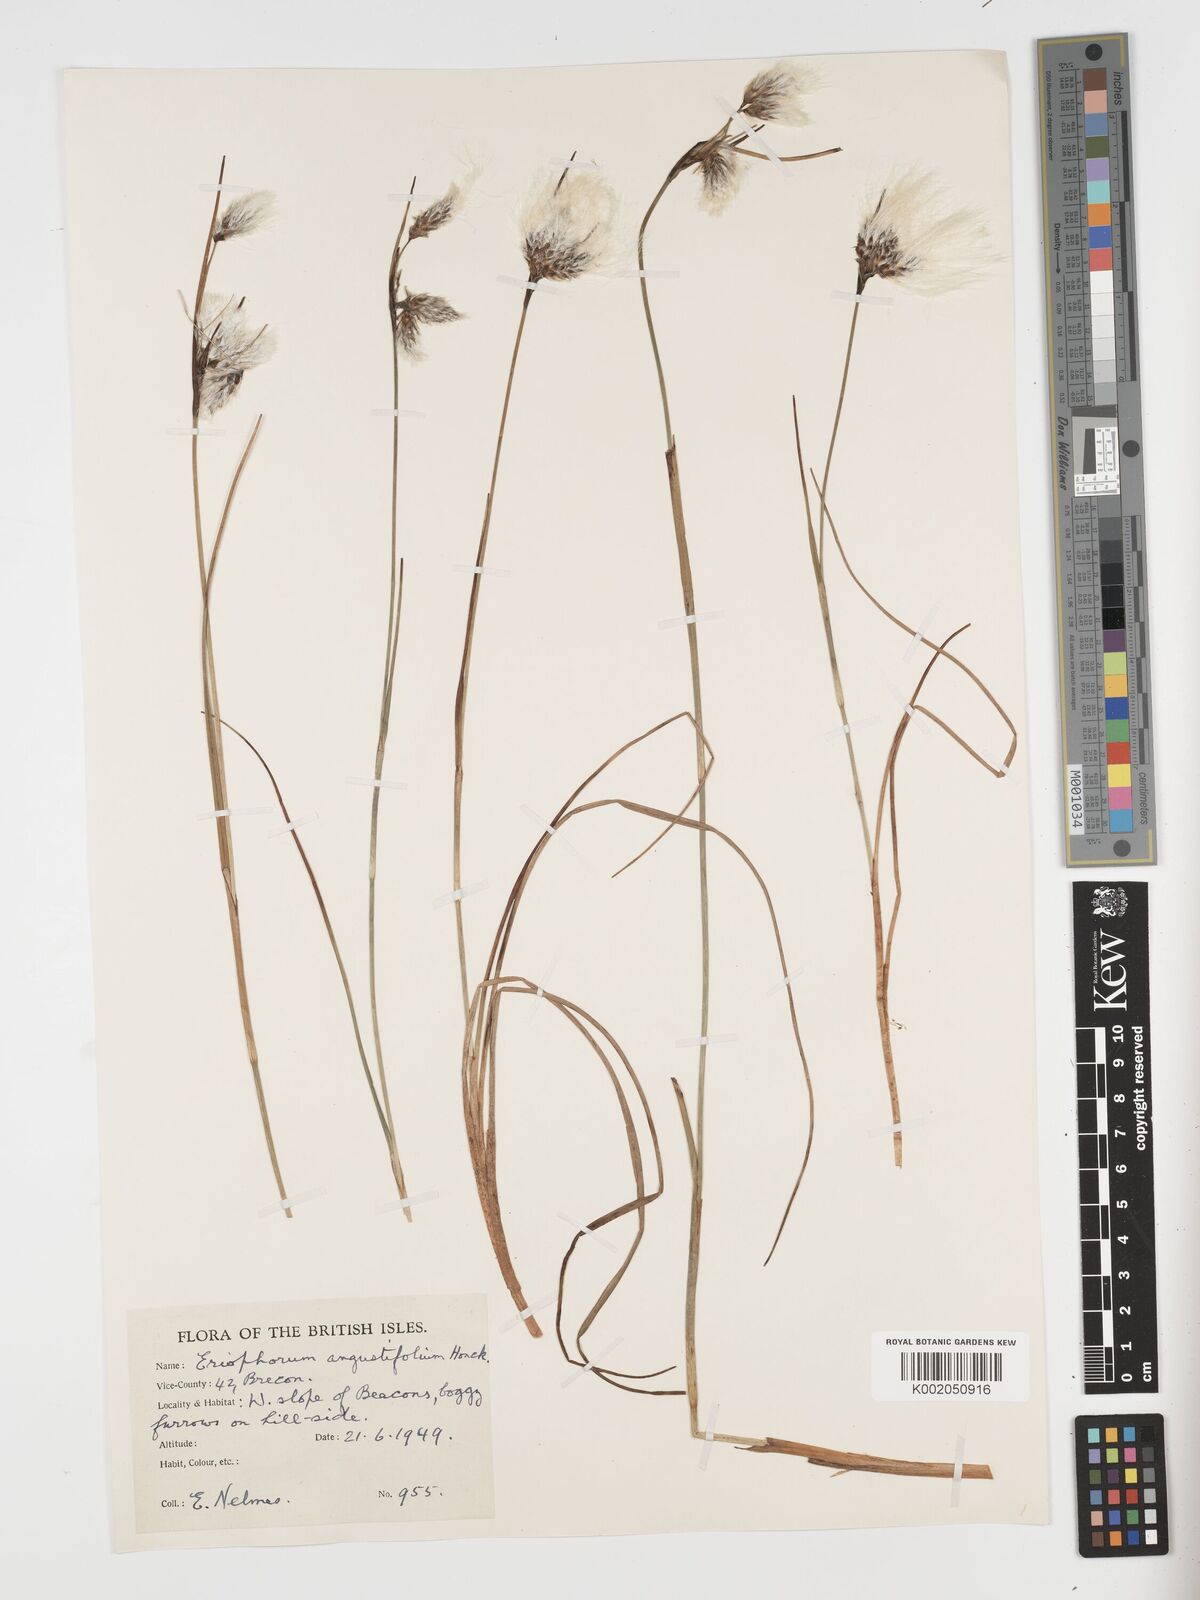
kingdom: Plantae
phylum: Tracheophyta
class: Liliopsida
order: Poales
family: Cyperaceae
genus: Eriophorum
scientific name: Eriophorum angustifolium
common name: Common cottongrass
